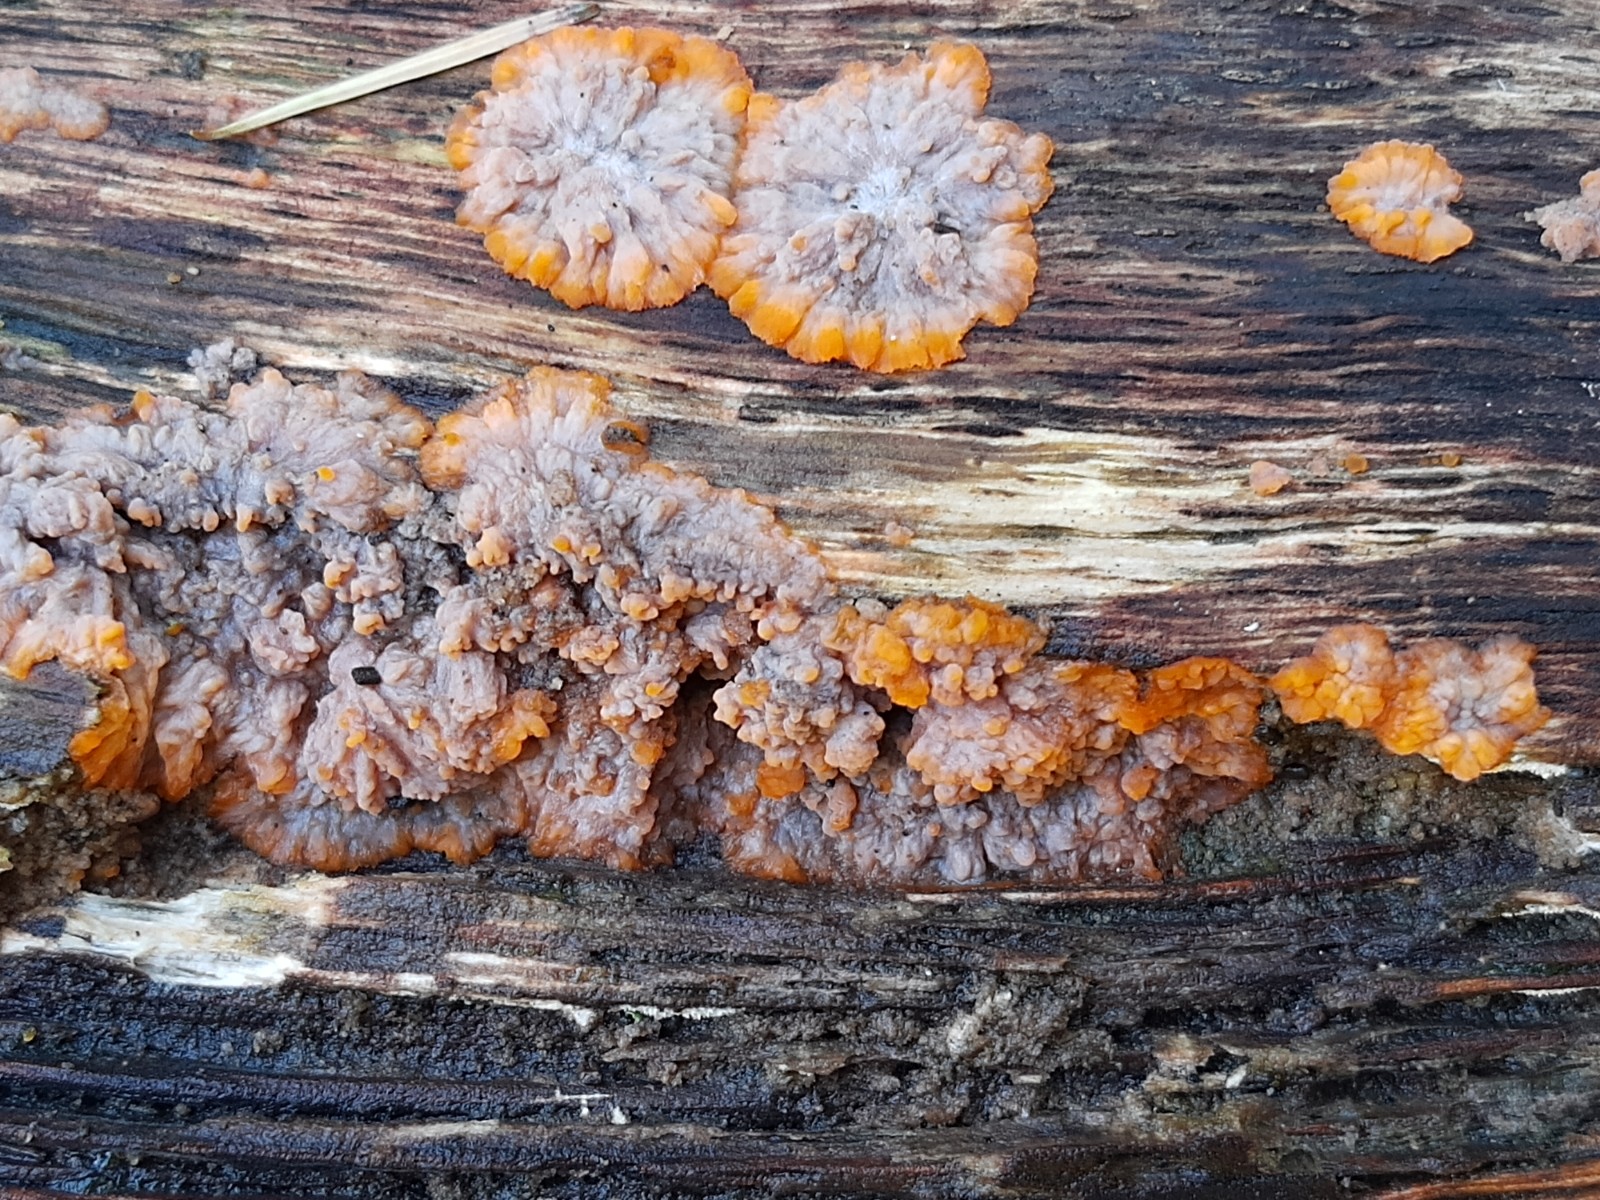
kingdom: Fungi
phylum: Basidiomycota
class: Agaricomycetes
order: Polyporales
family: Meruliaceae
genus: Phlebia
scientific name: Phlebia radiata
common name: stråle-åresvamp
